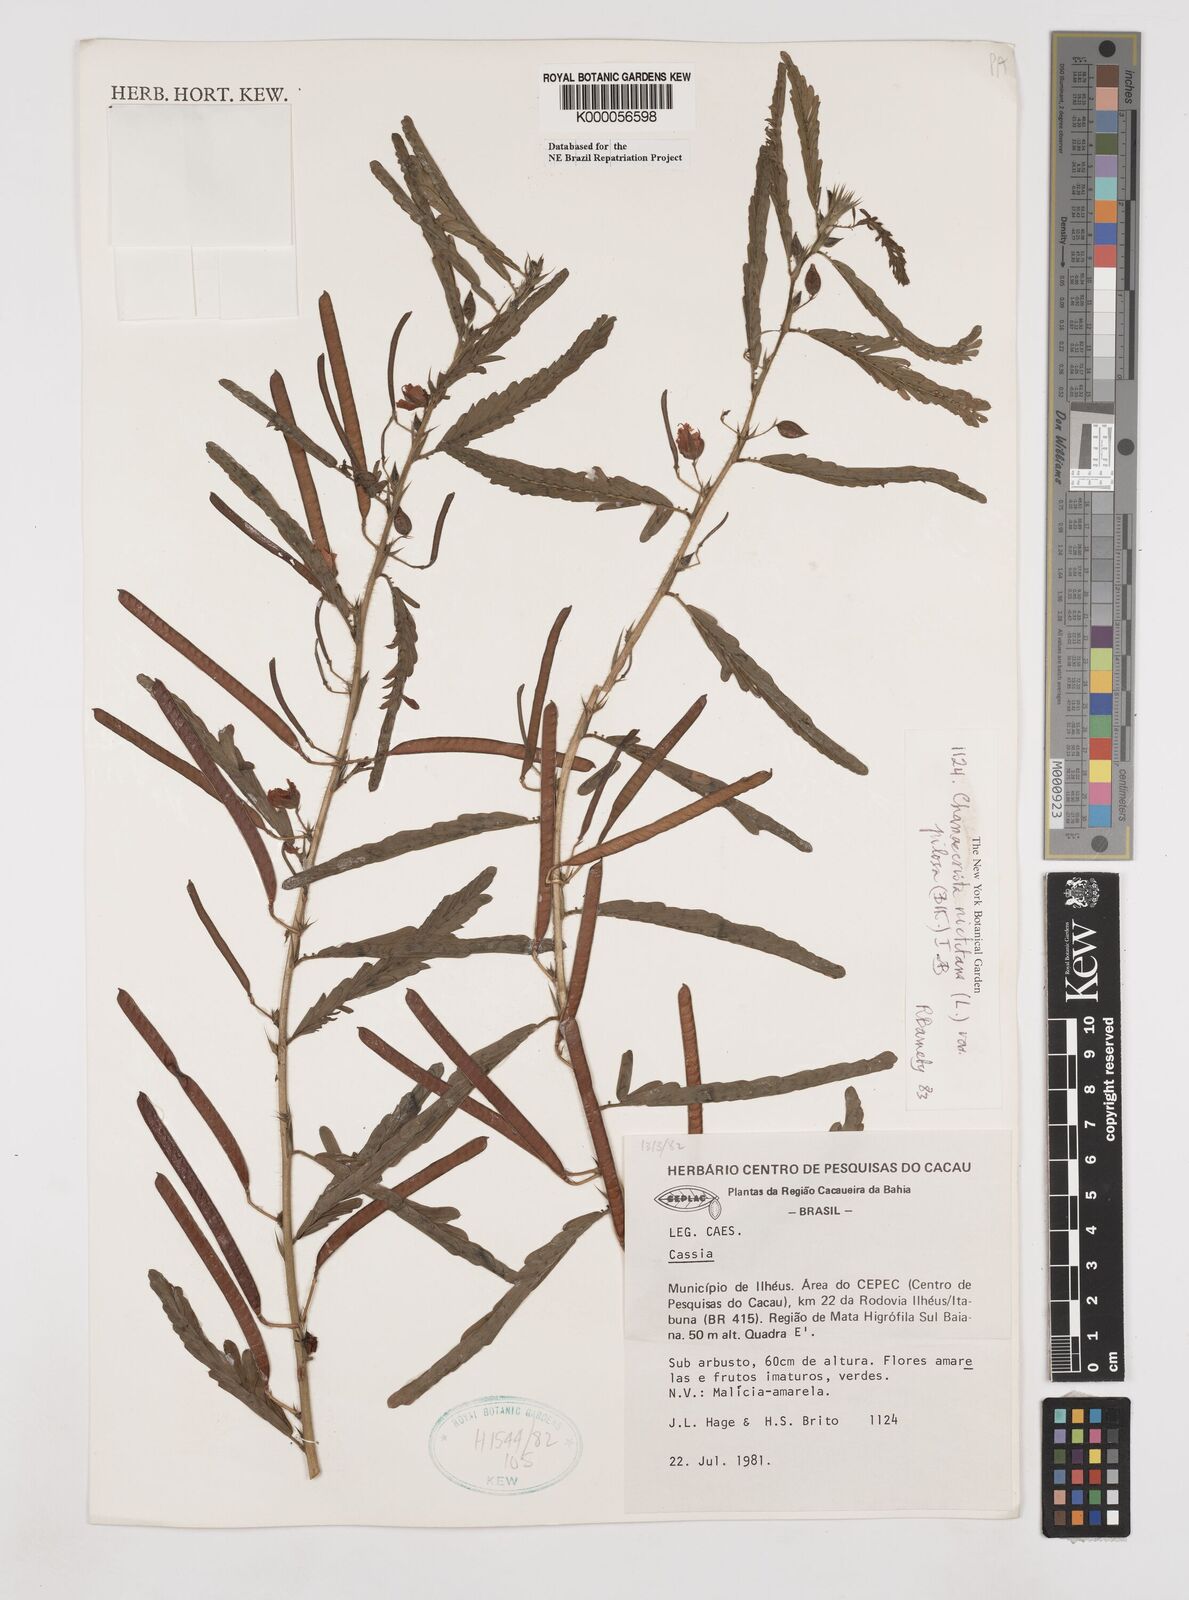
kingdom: Plantae
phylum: Tracheophyta
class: Magnoliopsida
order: Fabales
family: Fabaceae
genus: Chamaecrista
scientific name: Chamaecrista nictitans
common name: Sensitive cassia
